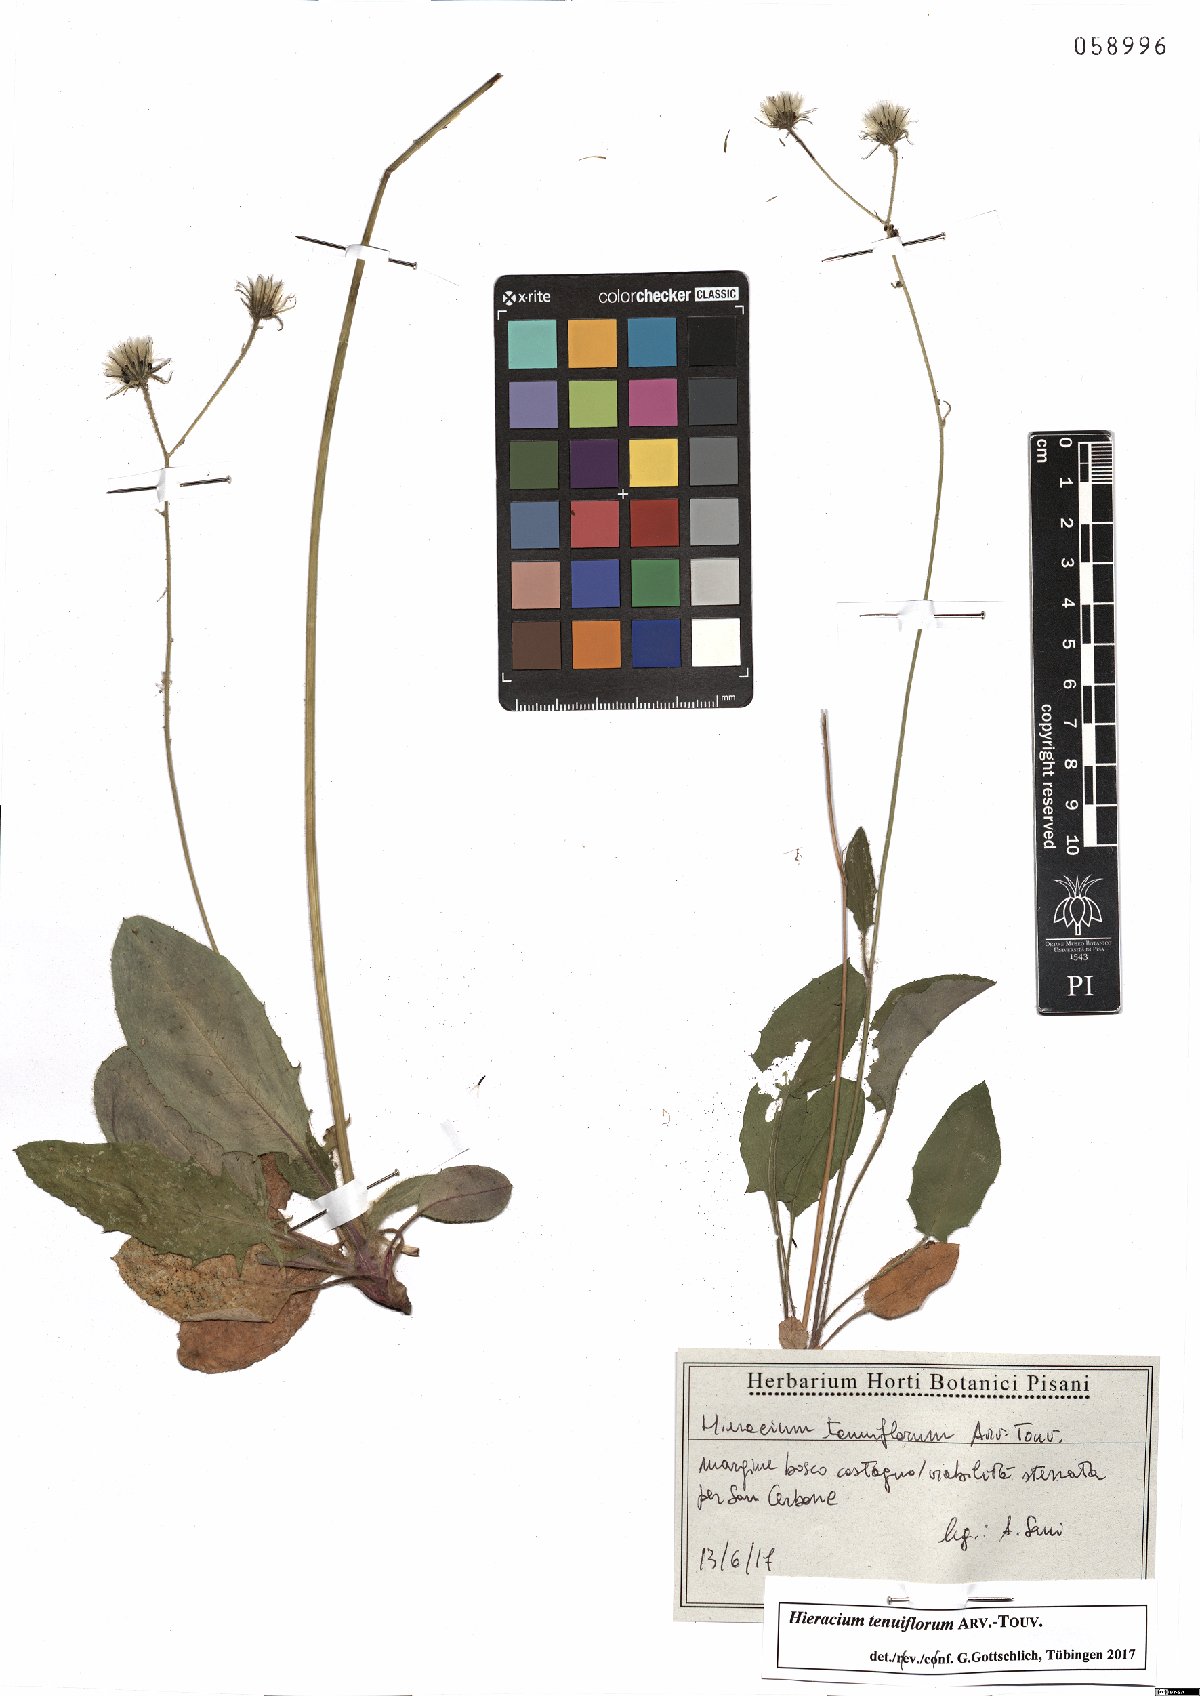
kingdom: Plantae
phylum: Tracheophyta
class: Magnoliopsida
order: Asterales
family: Asteraceae
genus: Hieracium
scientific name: Hieracium tenuiflorum
